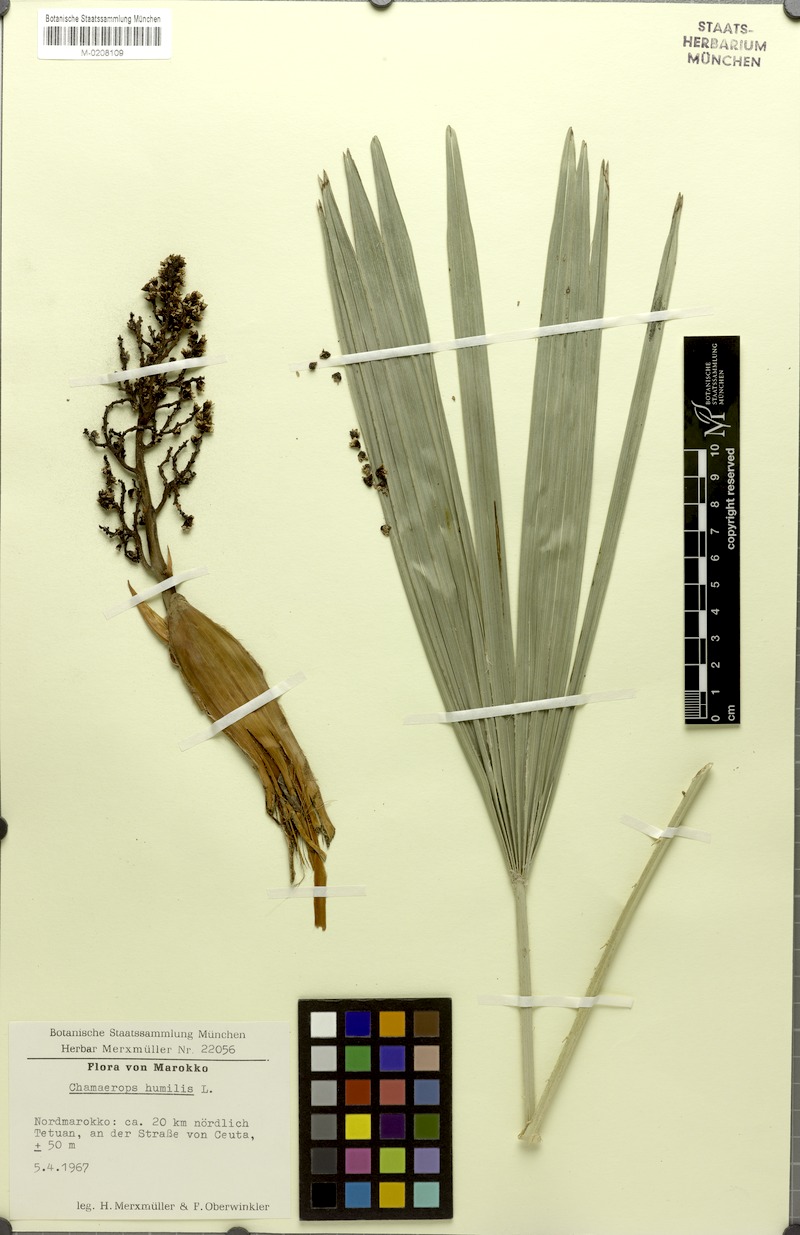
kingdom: Plantae
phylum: Tracheophyta
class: Liliopsida
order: Arecales
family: Arecaceae
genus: Chamaerops
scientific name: Chamaerops humilis
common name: Dwarf fan palm
